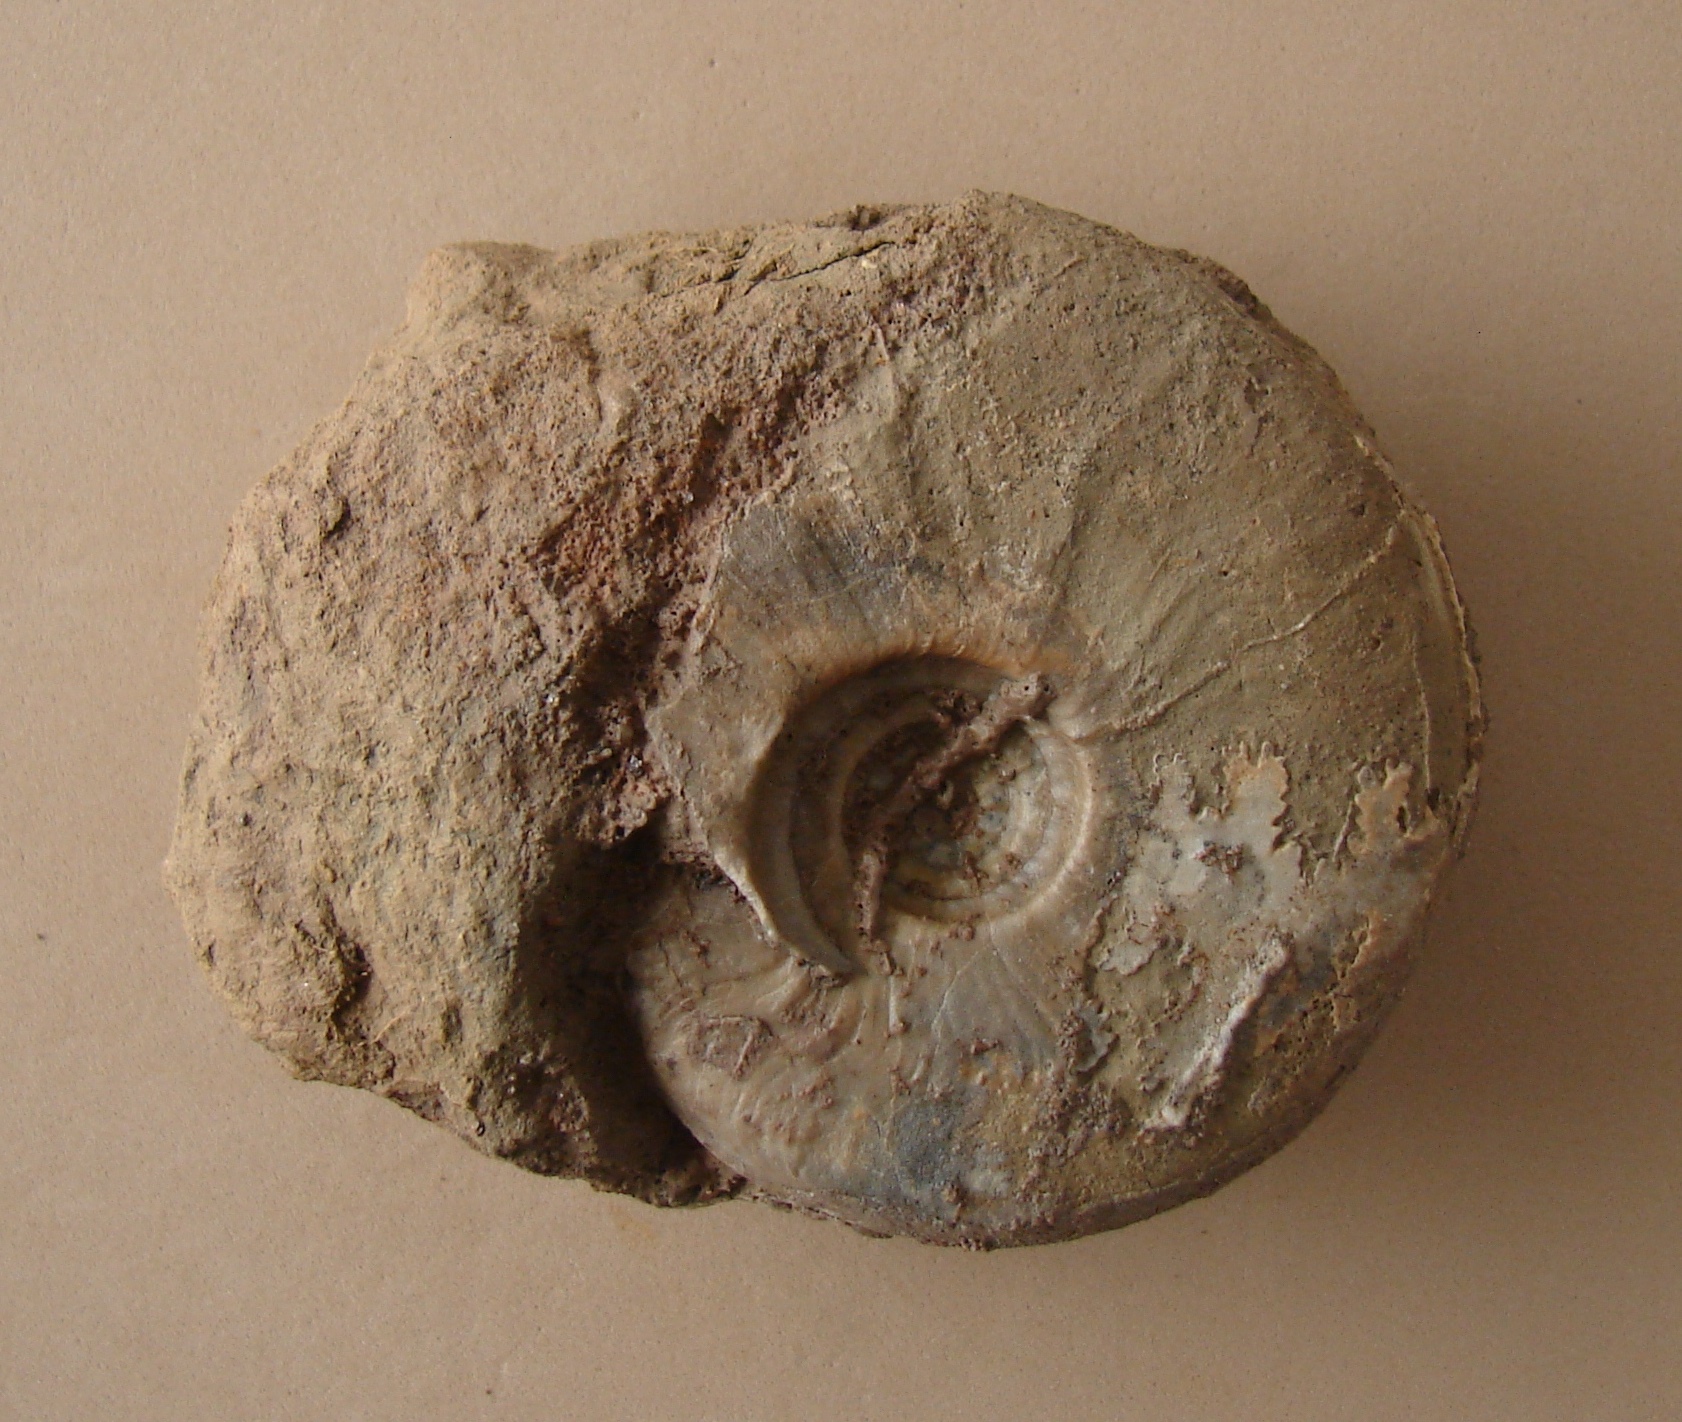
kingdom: Animalia
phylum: Mollusca
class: Cephalopoda
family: Graphoceratidae
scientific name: Graphoceratidae
